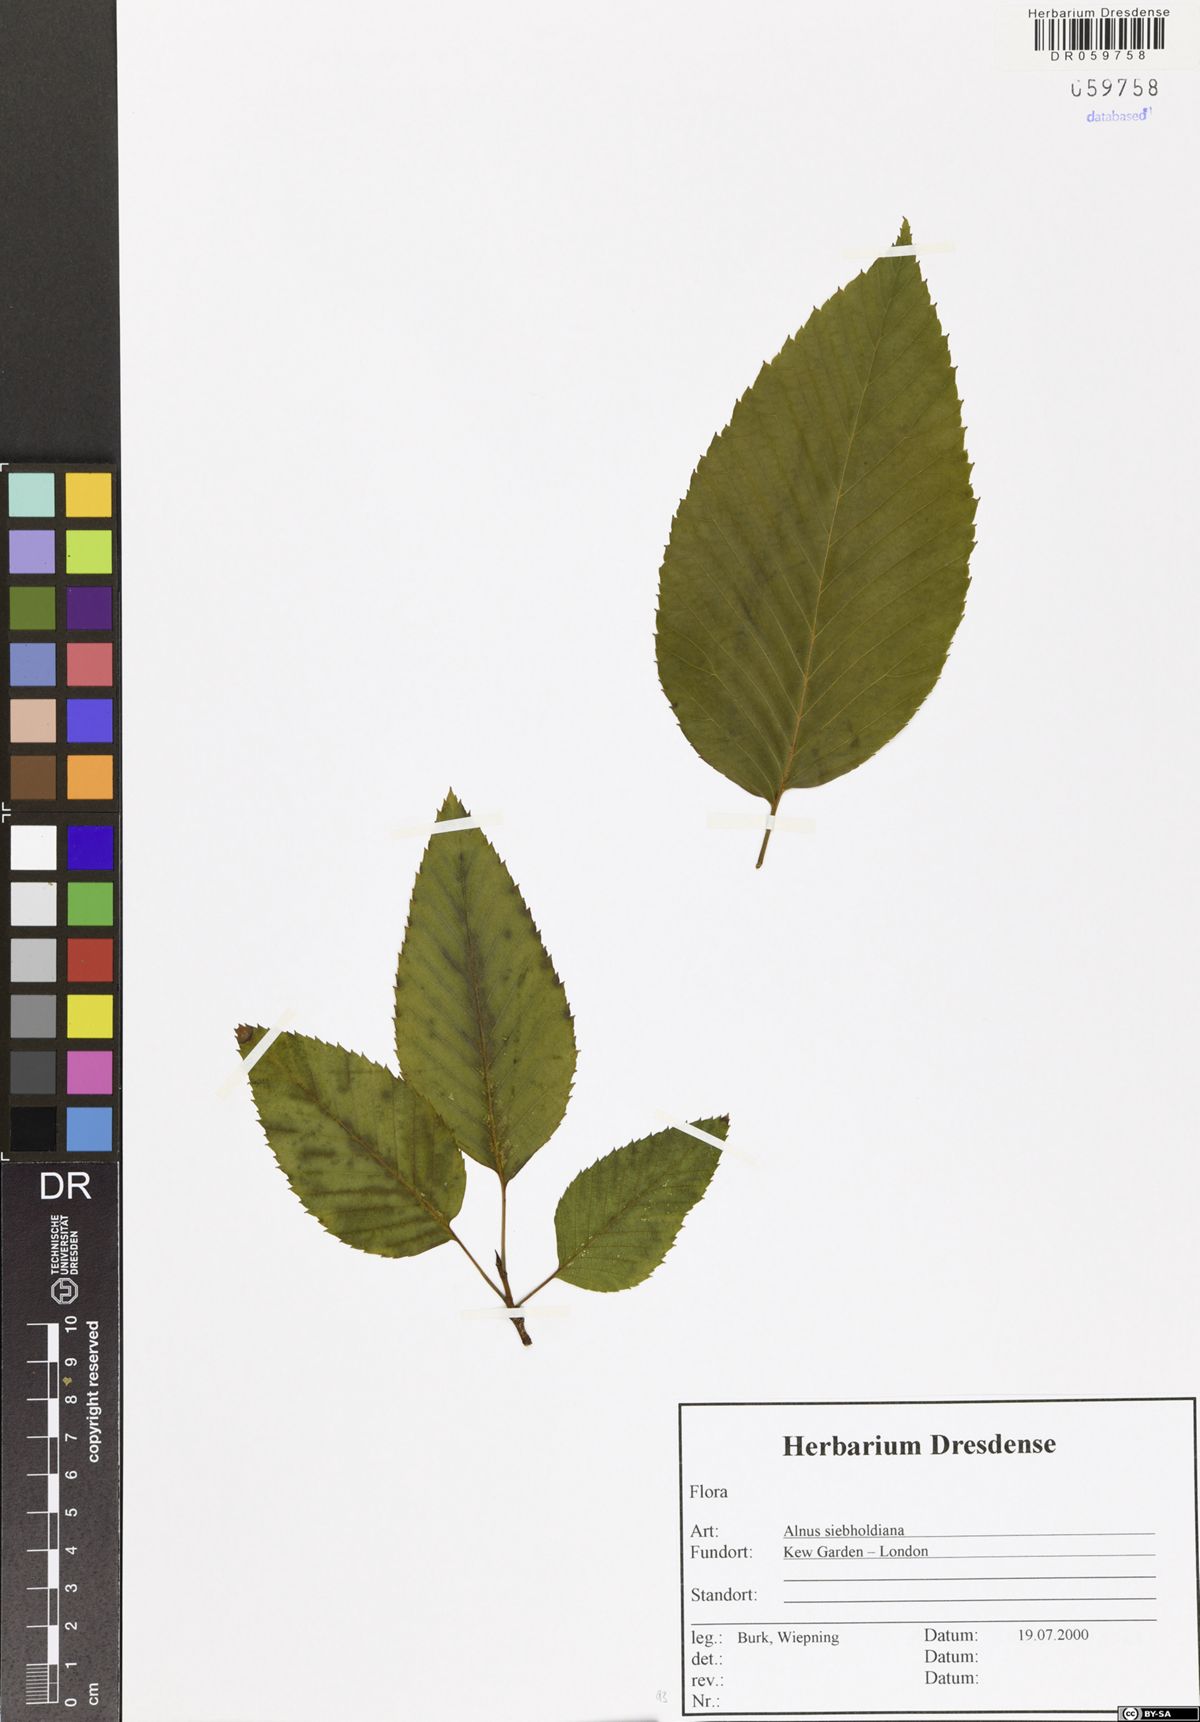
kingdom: Plantae
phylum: Tracheophyta
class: Magnoliopsida
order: Fagales
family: Betulaceae
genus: Alnus
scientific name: Alnus sieboldiana
